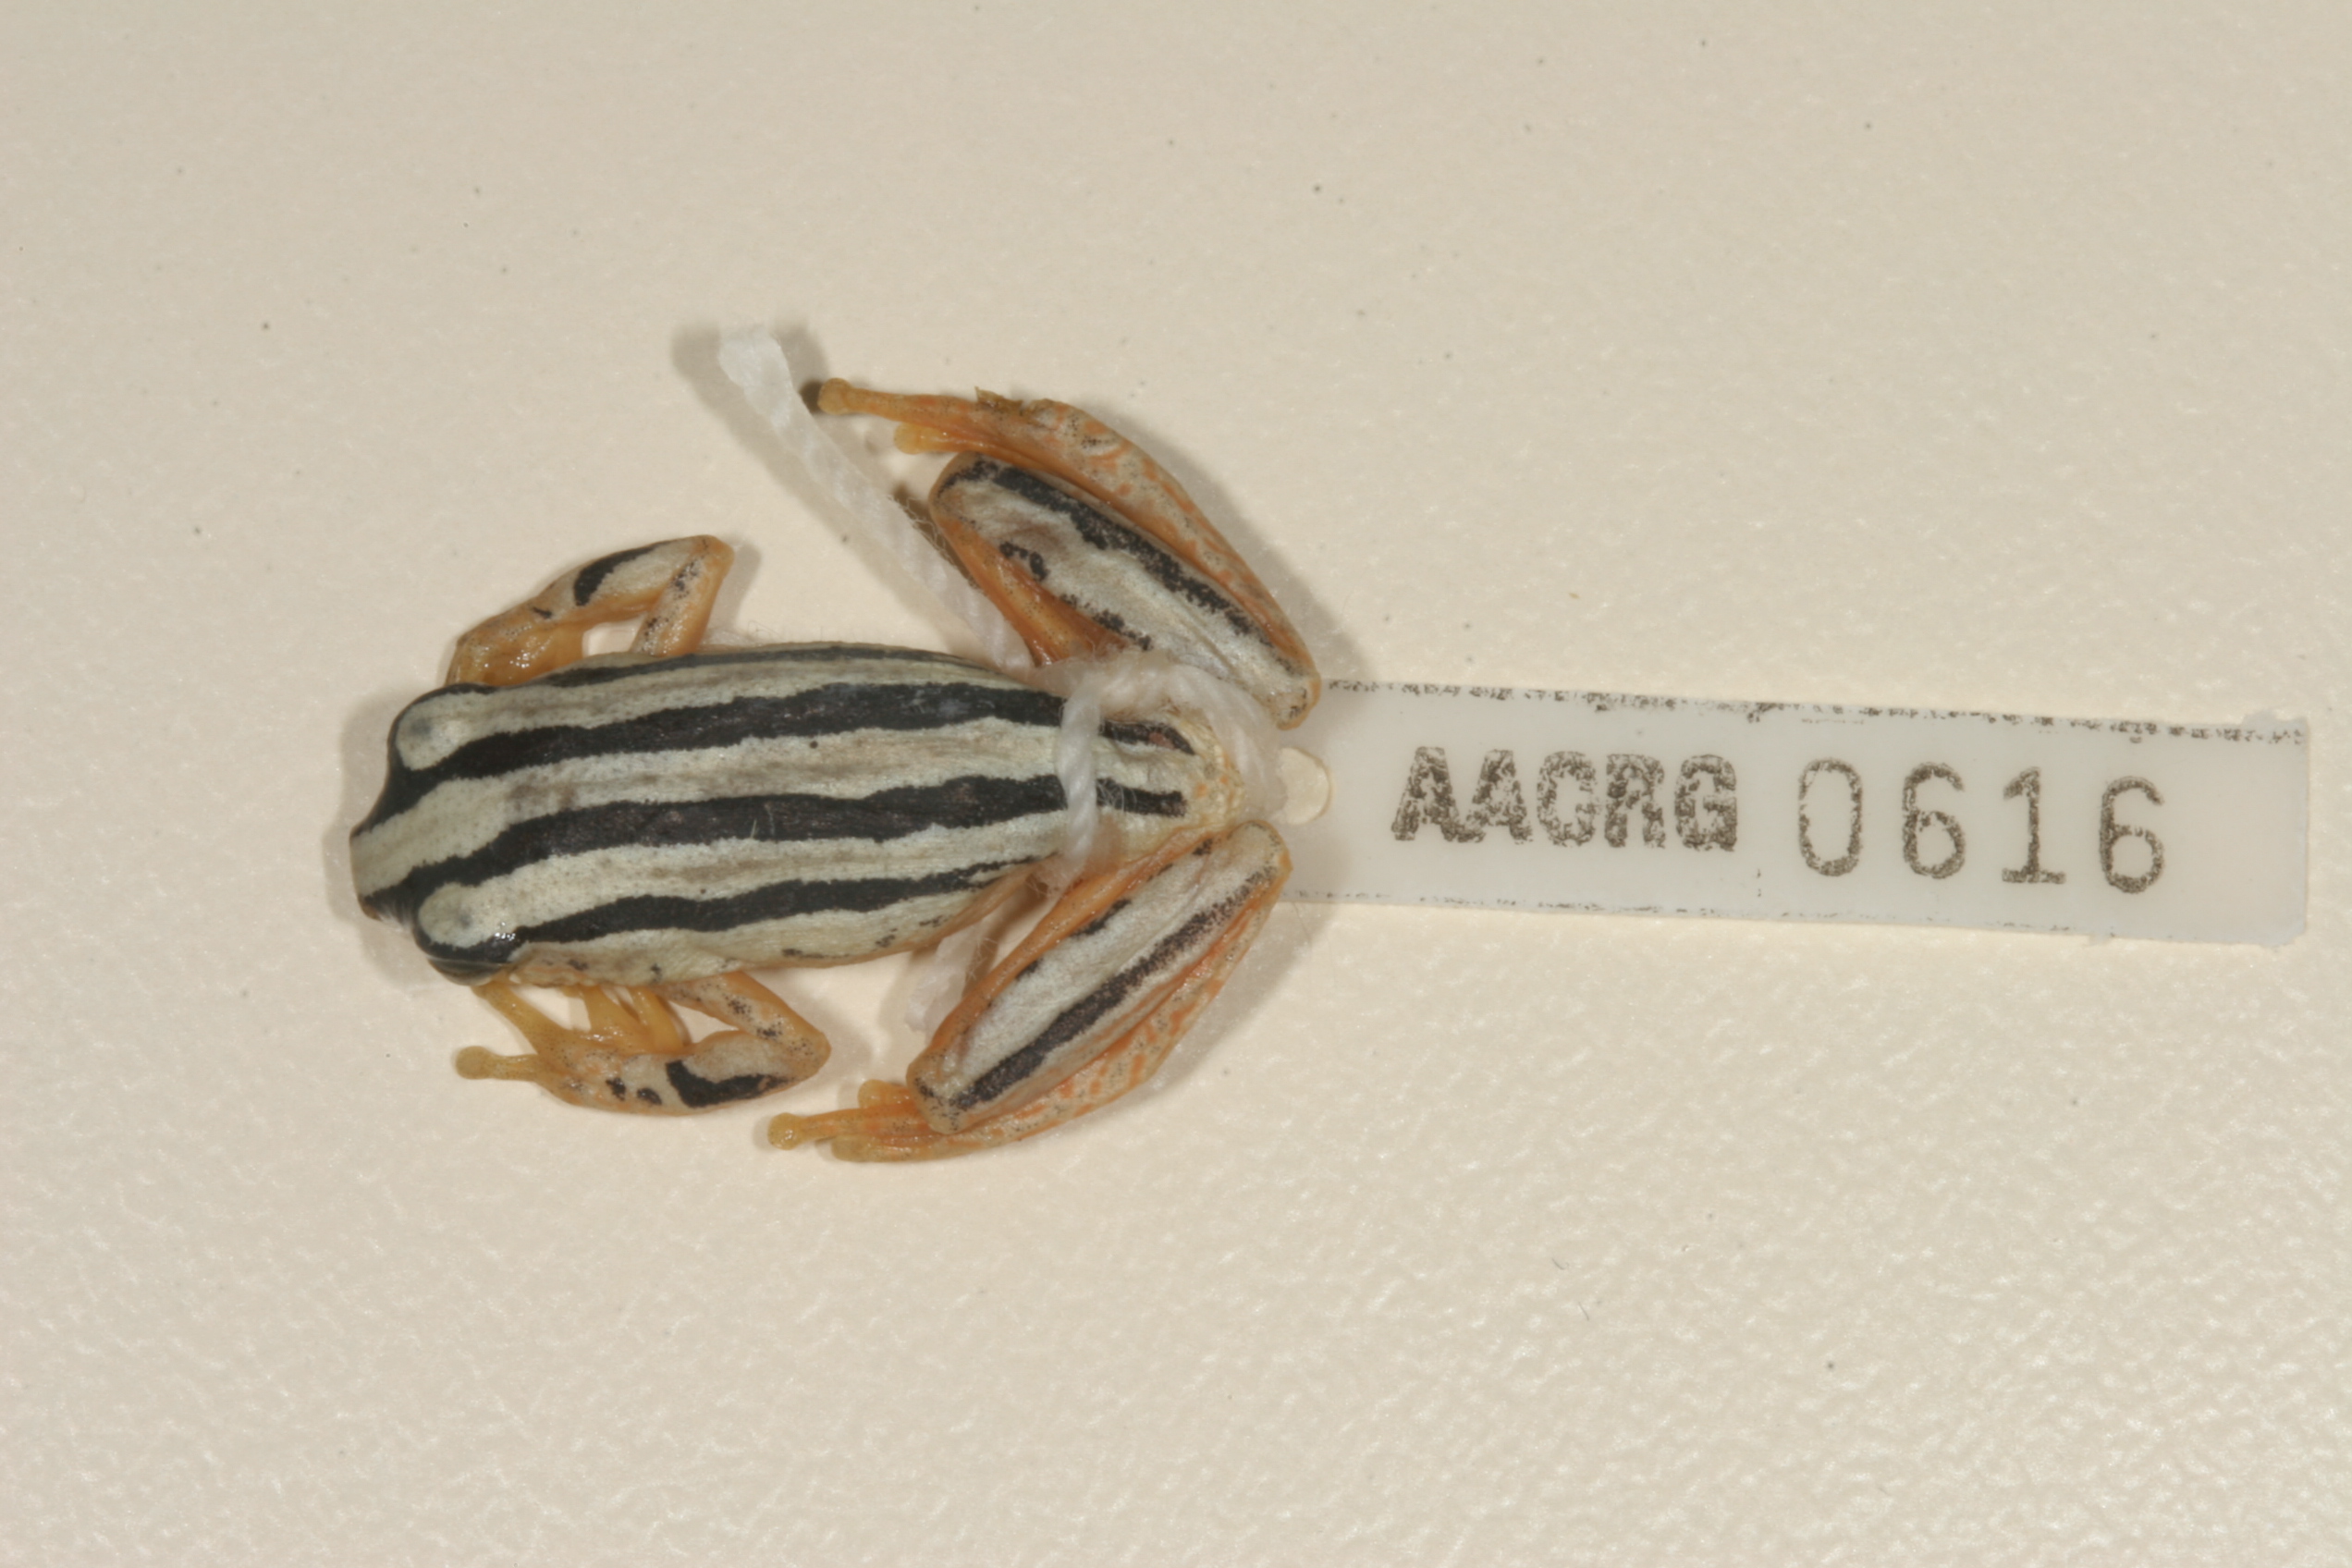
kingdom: Animalia
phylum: Chordata
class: Amphibia
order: Anura
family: Hyperoliidae
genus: Hyperolius
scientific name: Hyperolius marmoratus
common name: Painted reed frog
